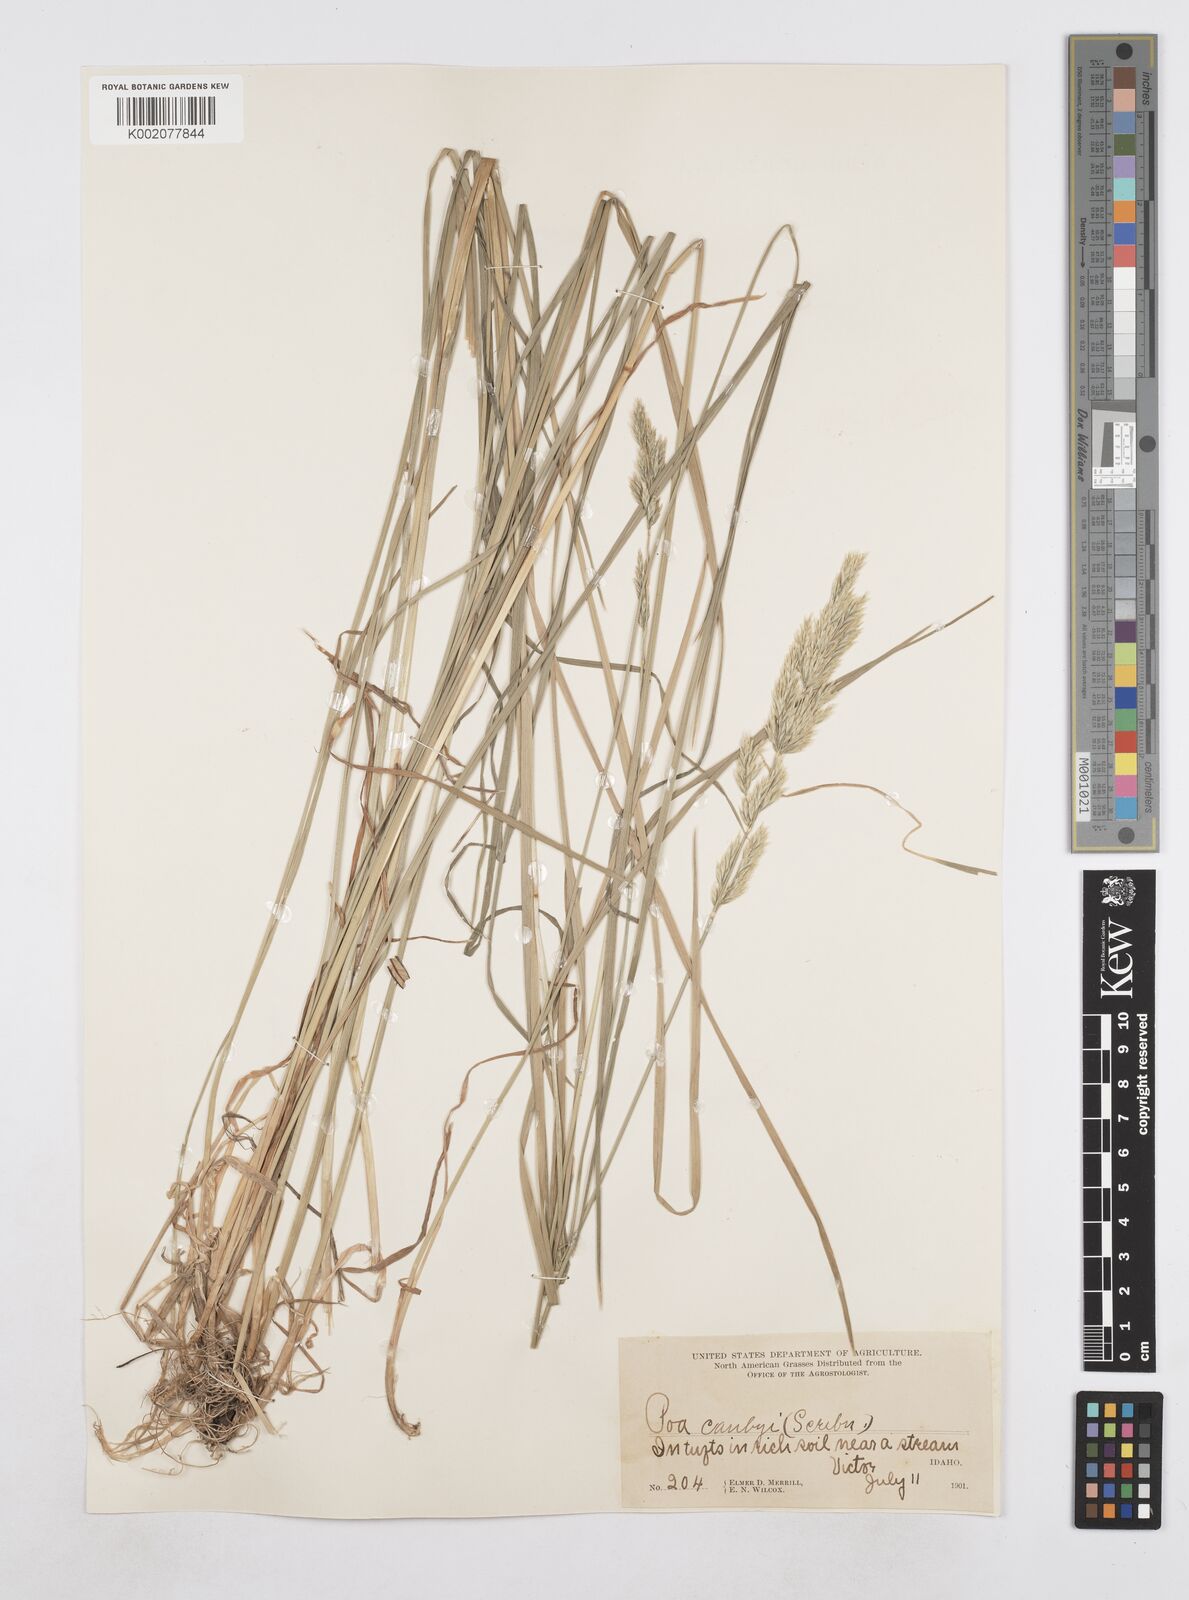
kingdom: Plantae
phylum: Tracheophyta
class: Liliopsida
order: Poales
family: Poaceae
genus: Poa
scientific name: Poa secunda
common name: Sandberg bluegrass
